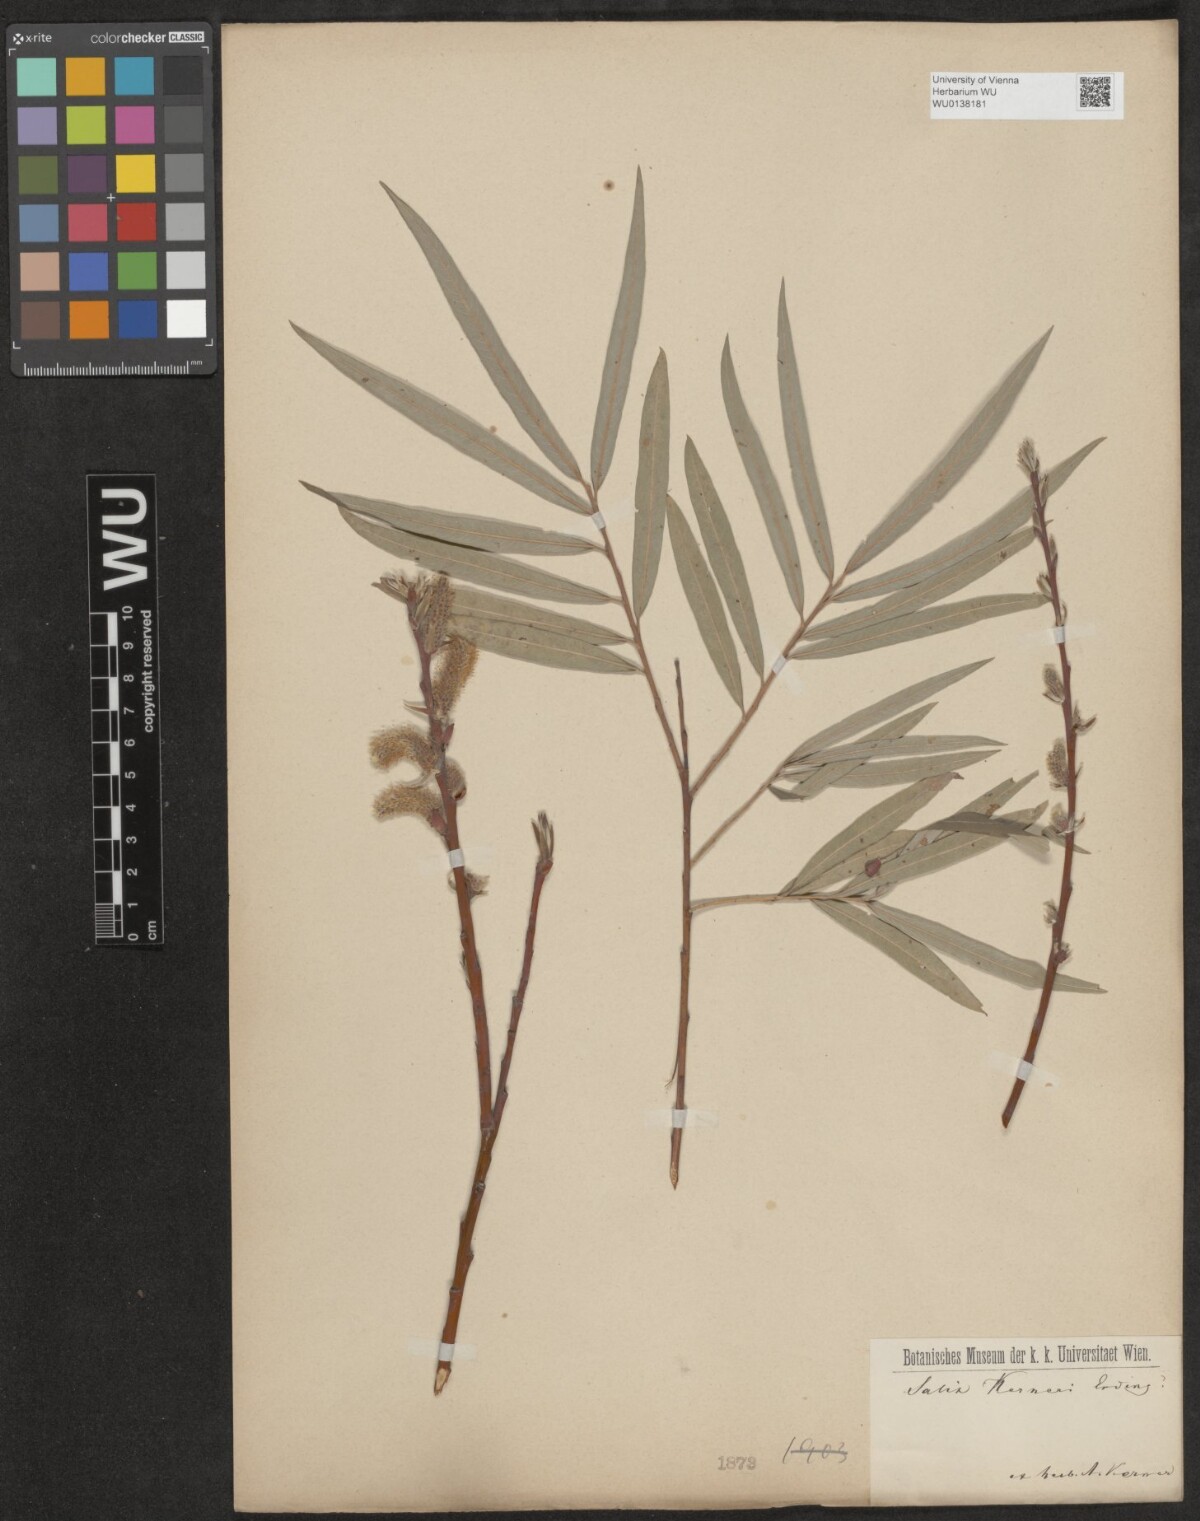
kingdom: Plantae
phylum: Tracheophyta
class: Magnoliopsida
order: Malpighiales
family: Salicaceae
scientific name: Salicaceae
